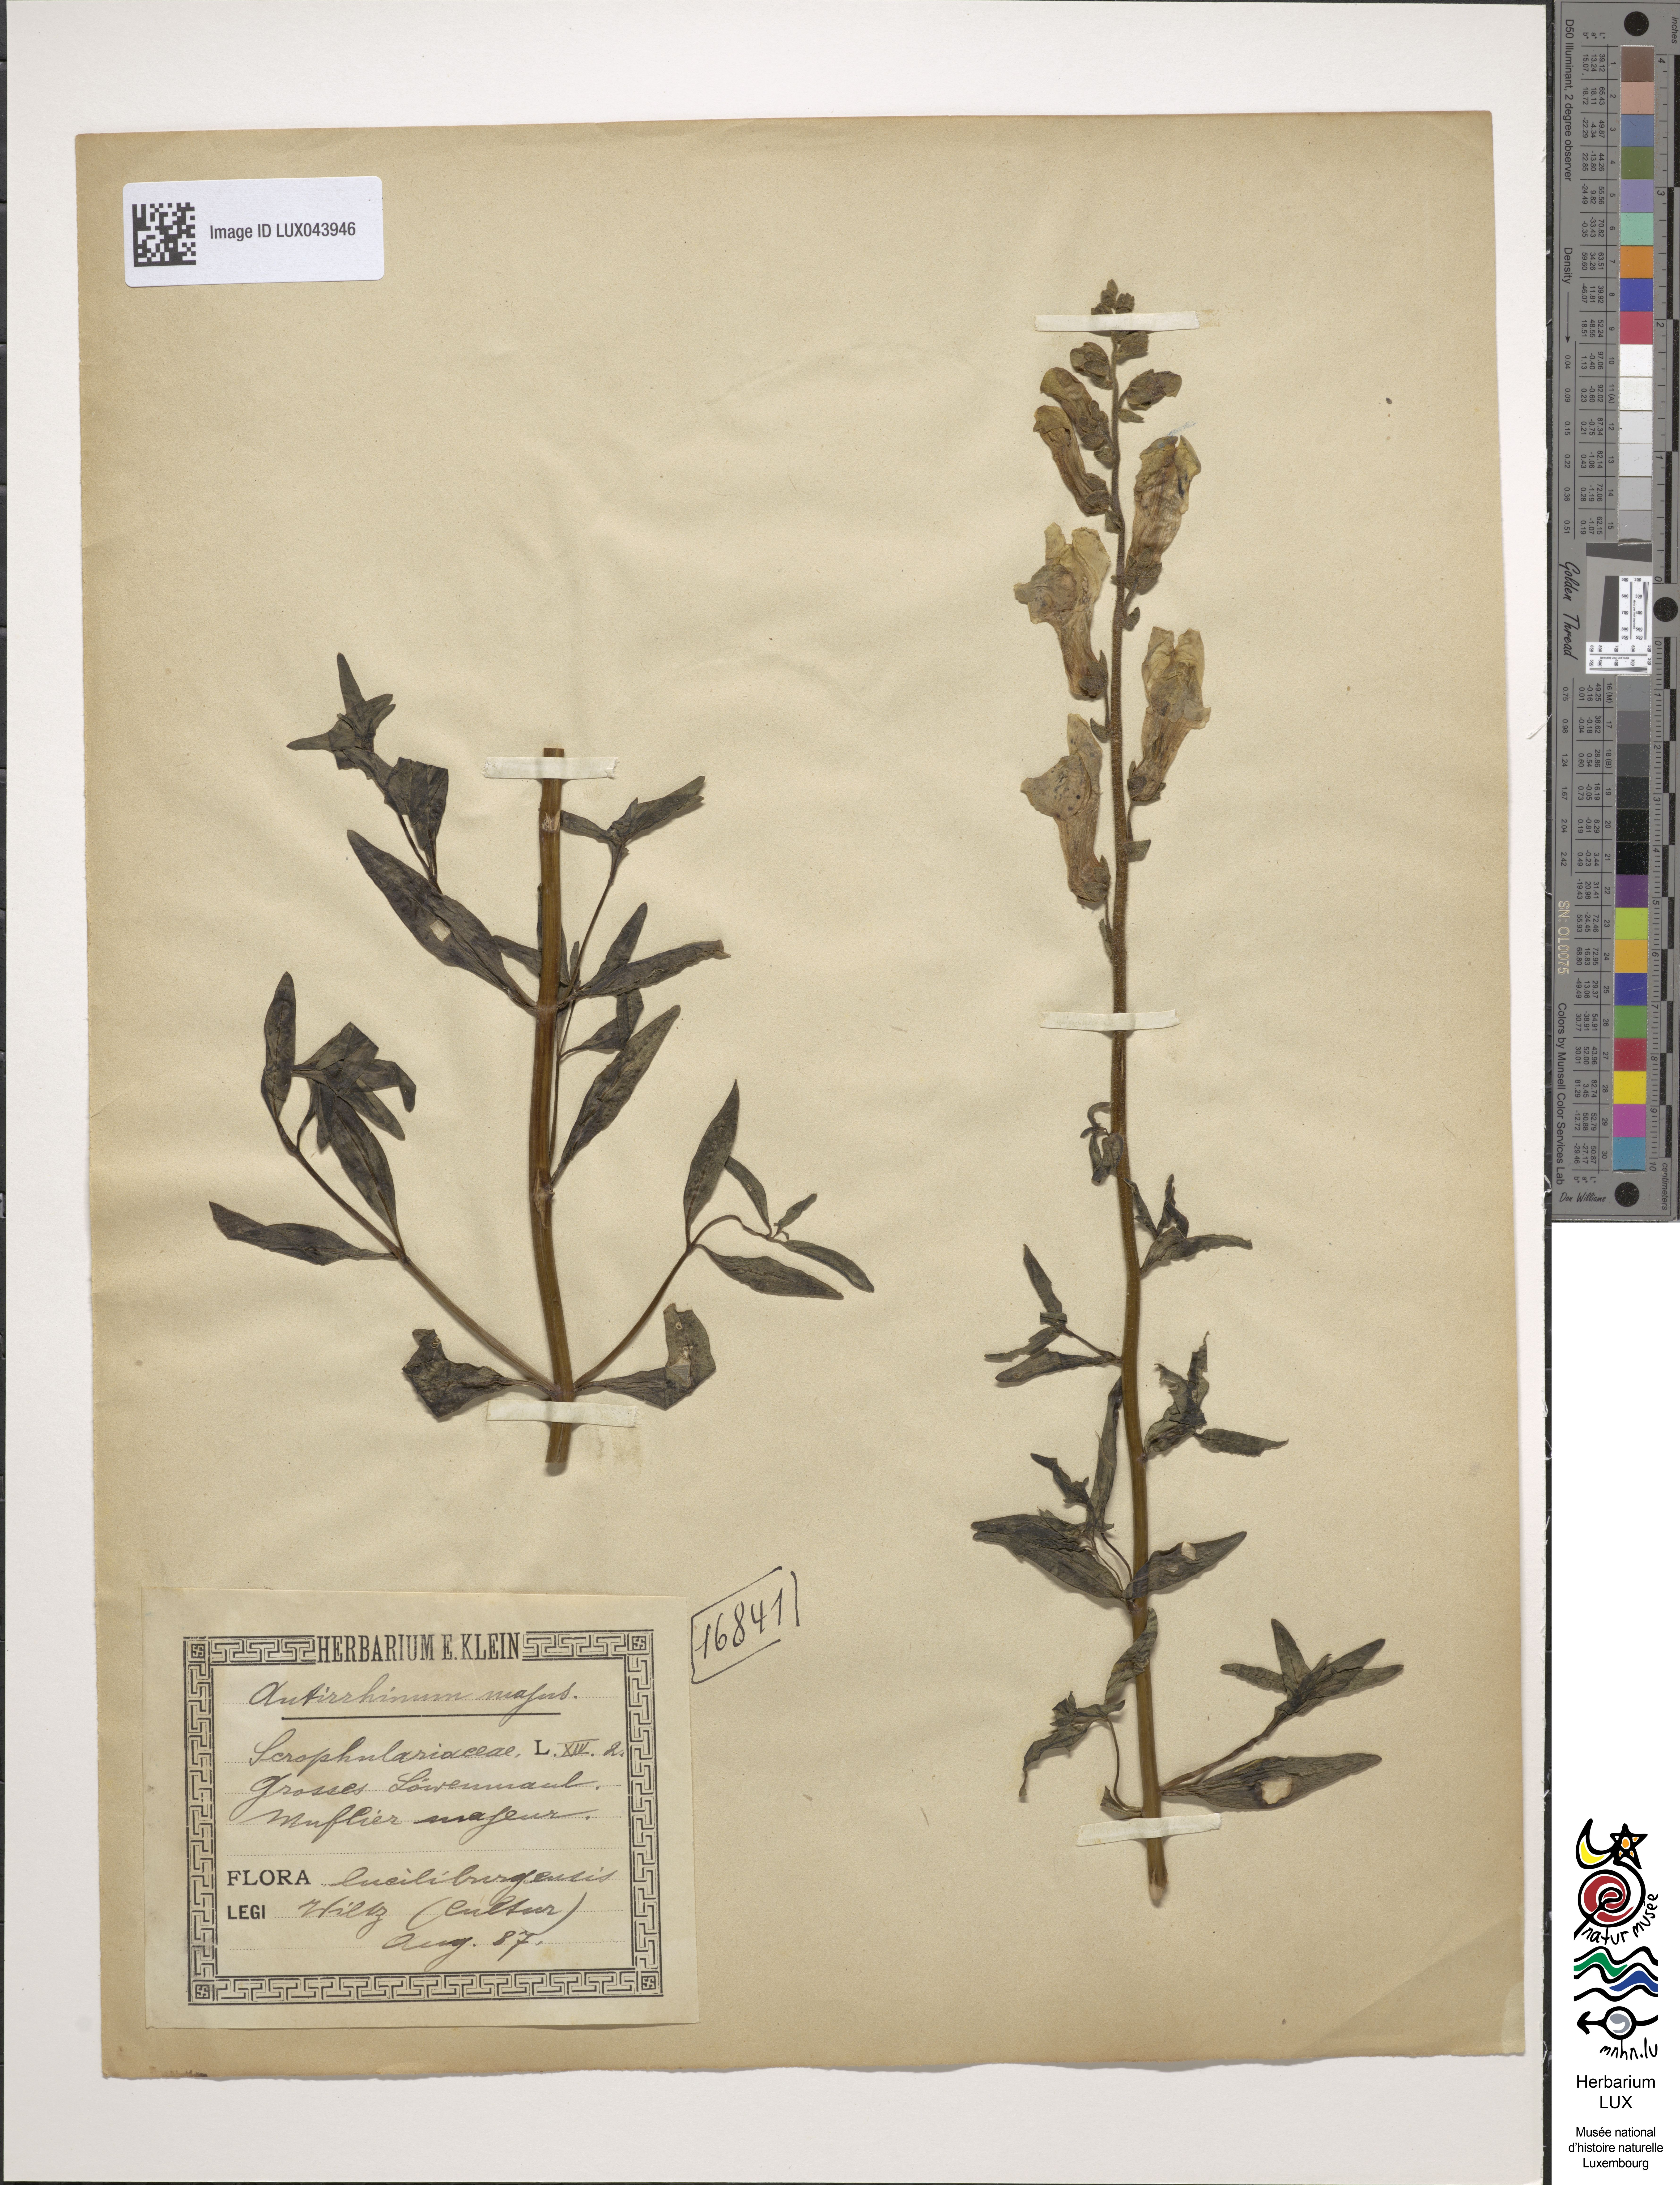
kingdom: Plantae
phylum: Tracheophyta
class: Magnoliopsida
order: Lamiales
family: Plantaginaceae
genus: Antirrhinum
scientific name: Antirrhinum majus
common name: Snapdragon
